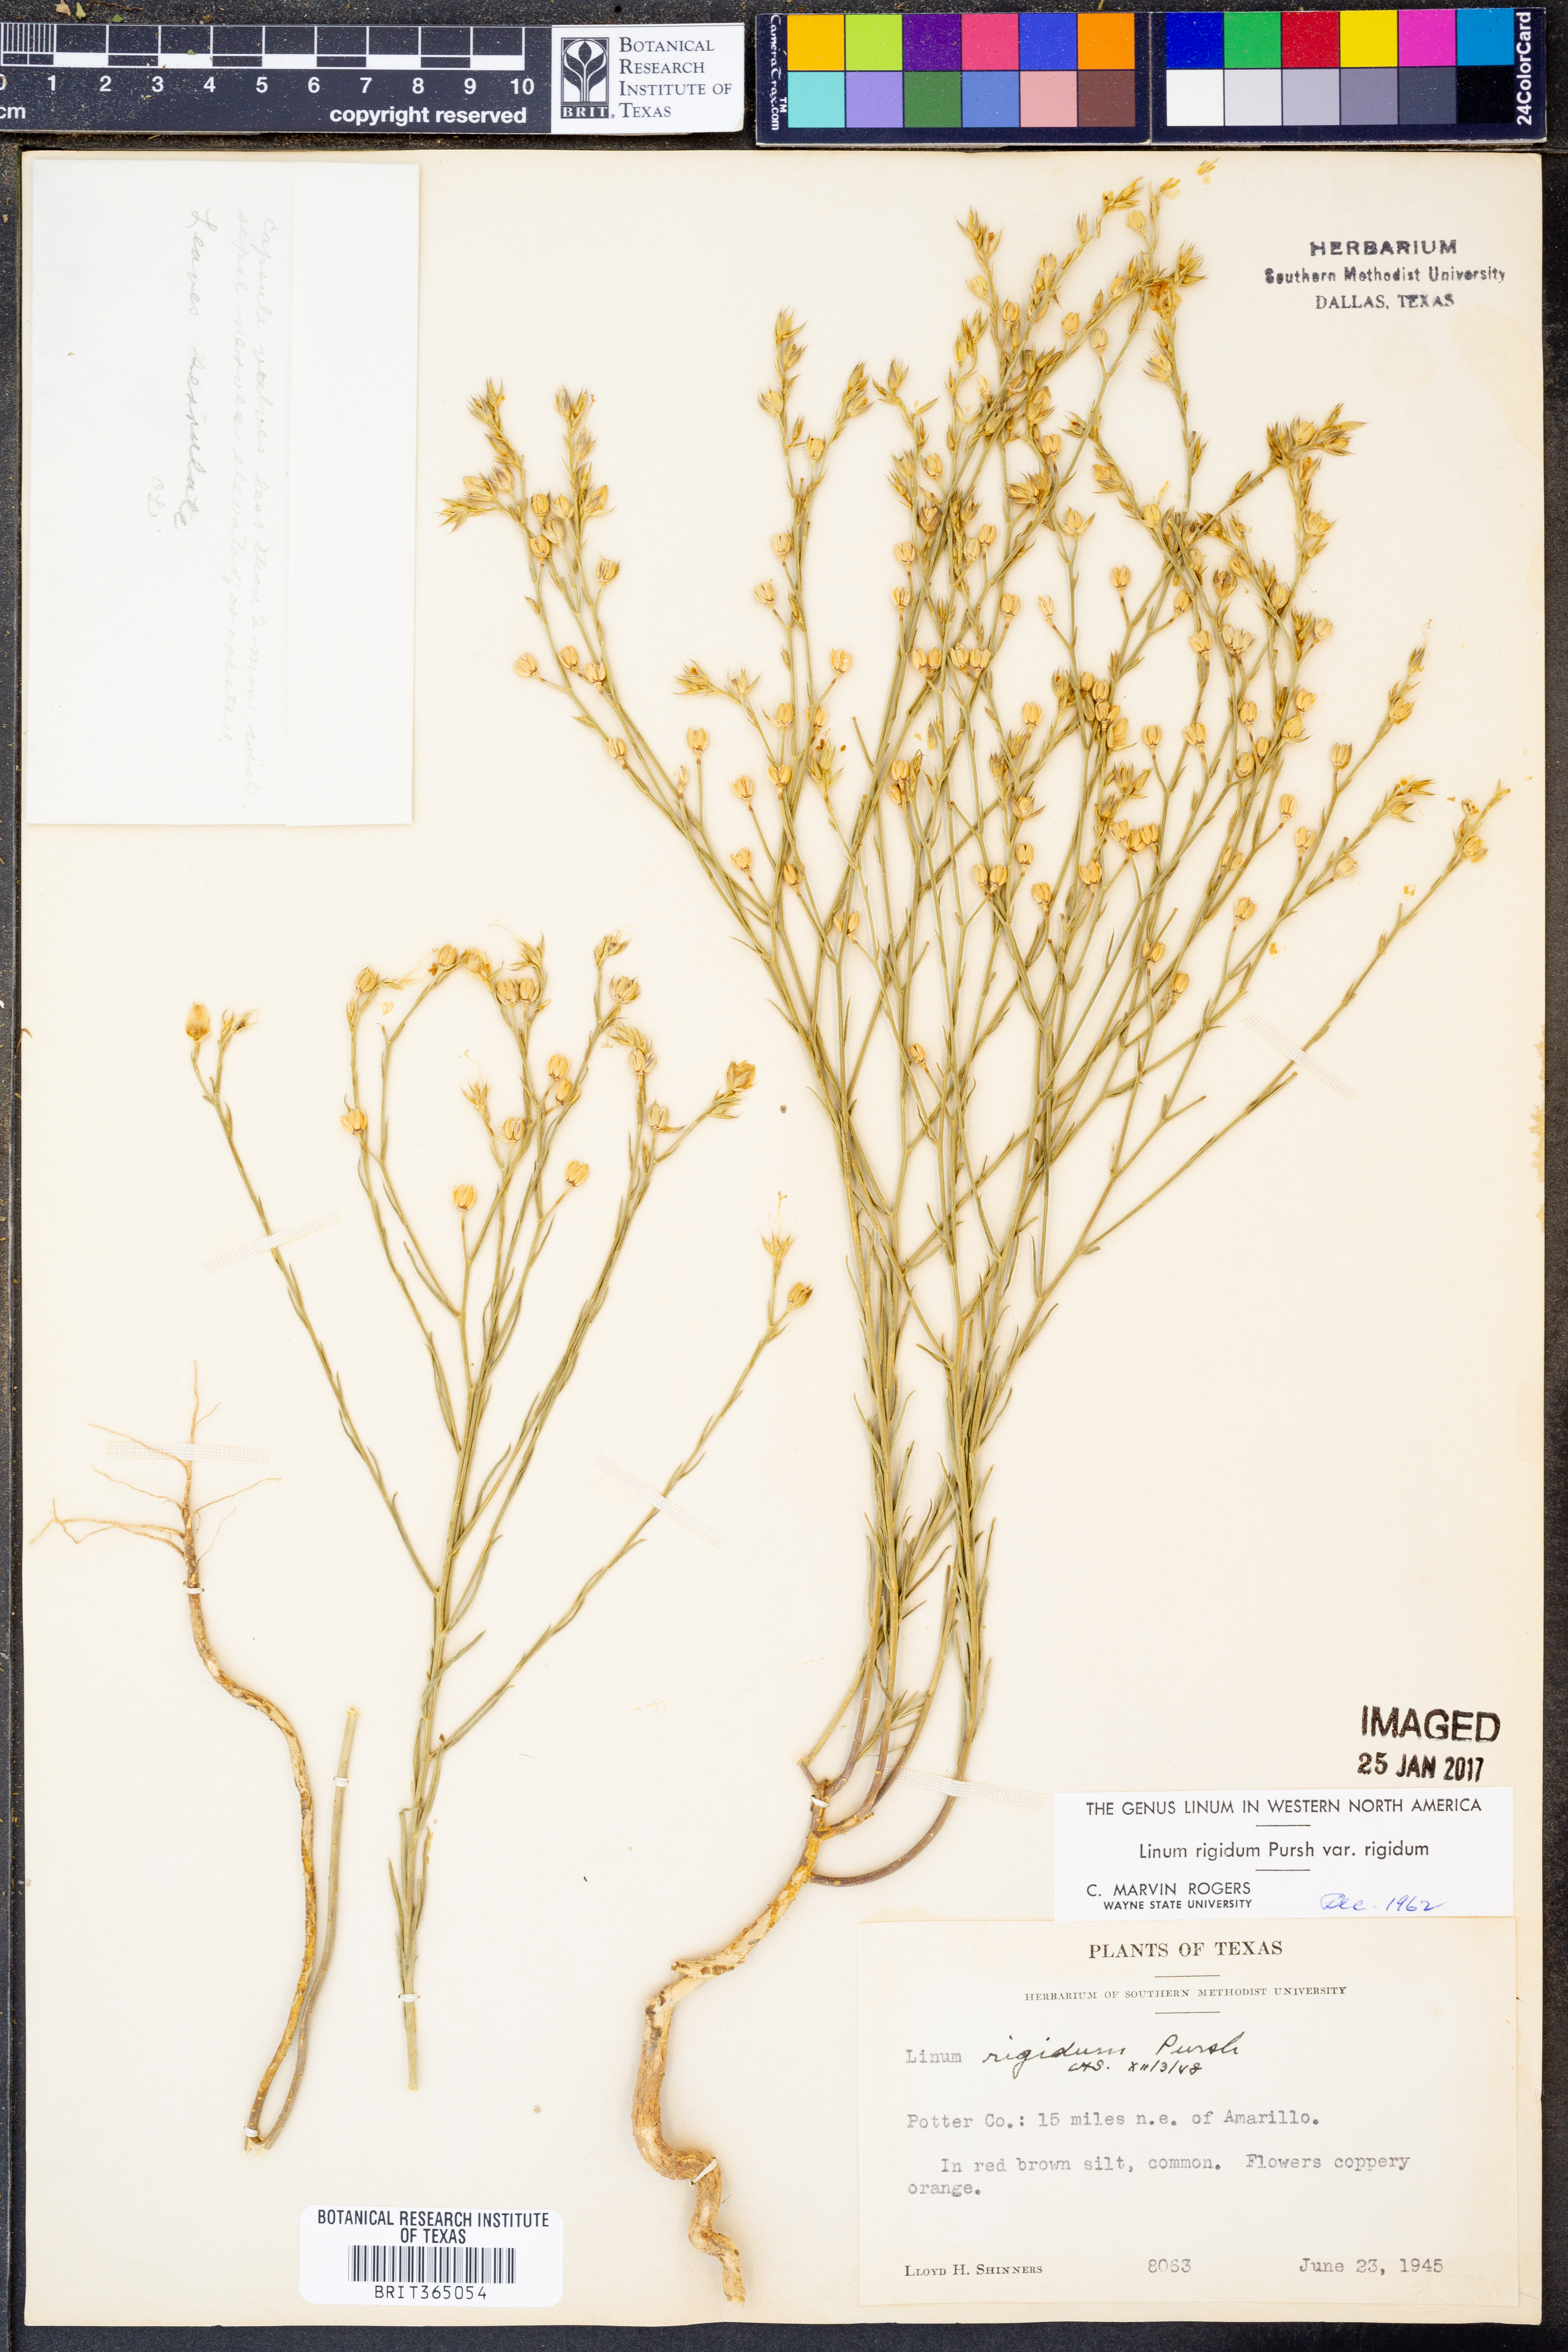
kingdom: Plantae
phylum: Tracheophyta
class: Magnoliopsida
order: Malpighiales
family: Linaceae
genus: Linum
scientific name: Linum rigidum
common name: Stiff-stem flax
